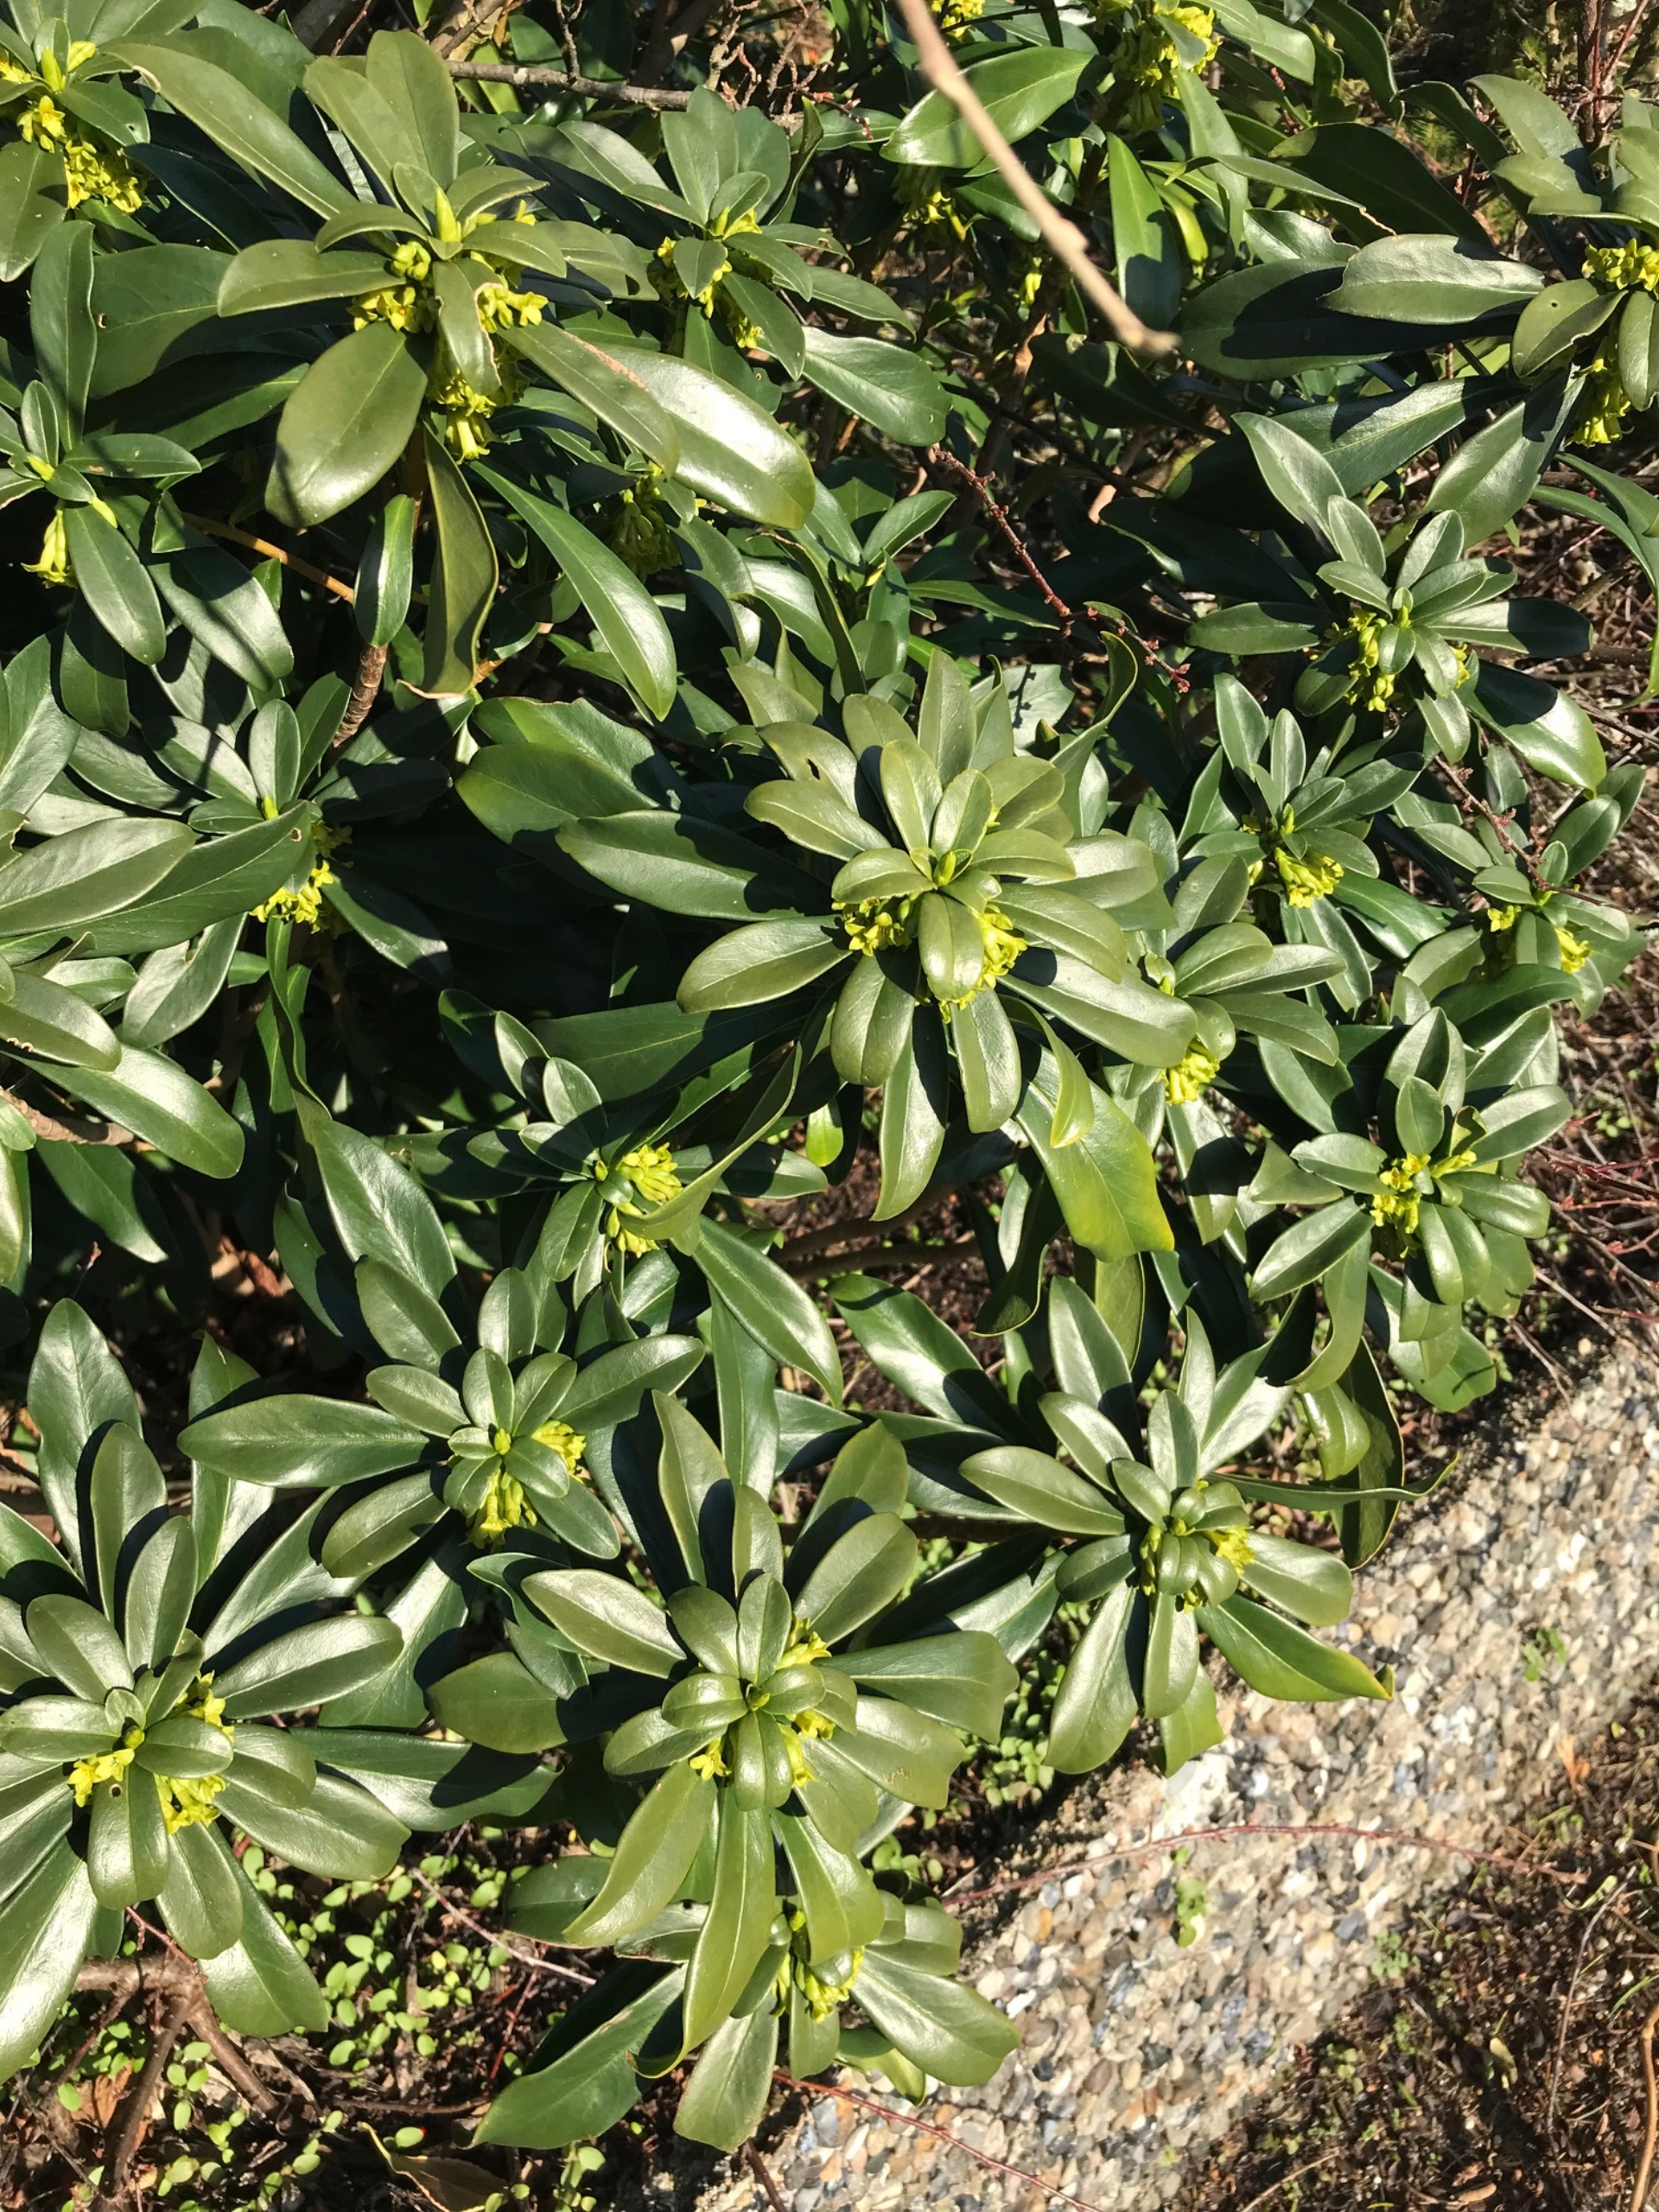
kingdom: Plantae
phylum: Tracheophyta
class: Magnoliopsida
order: Malvales
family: Thymelaeaceae
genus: Daphne
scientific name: Daphne laureola
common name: Laurbær-dafne
